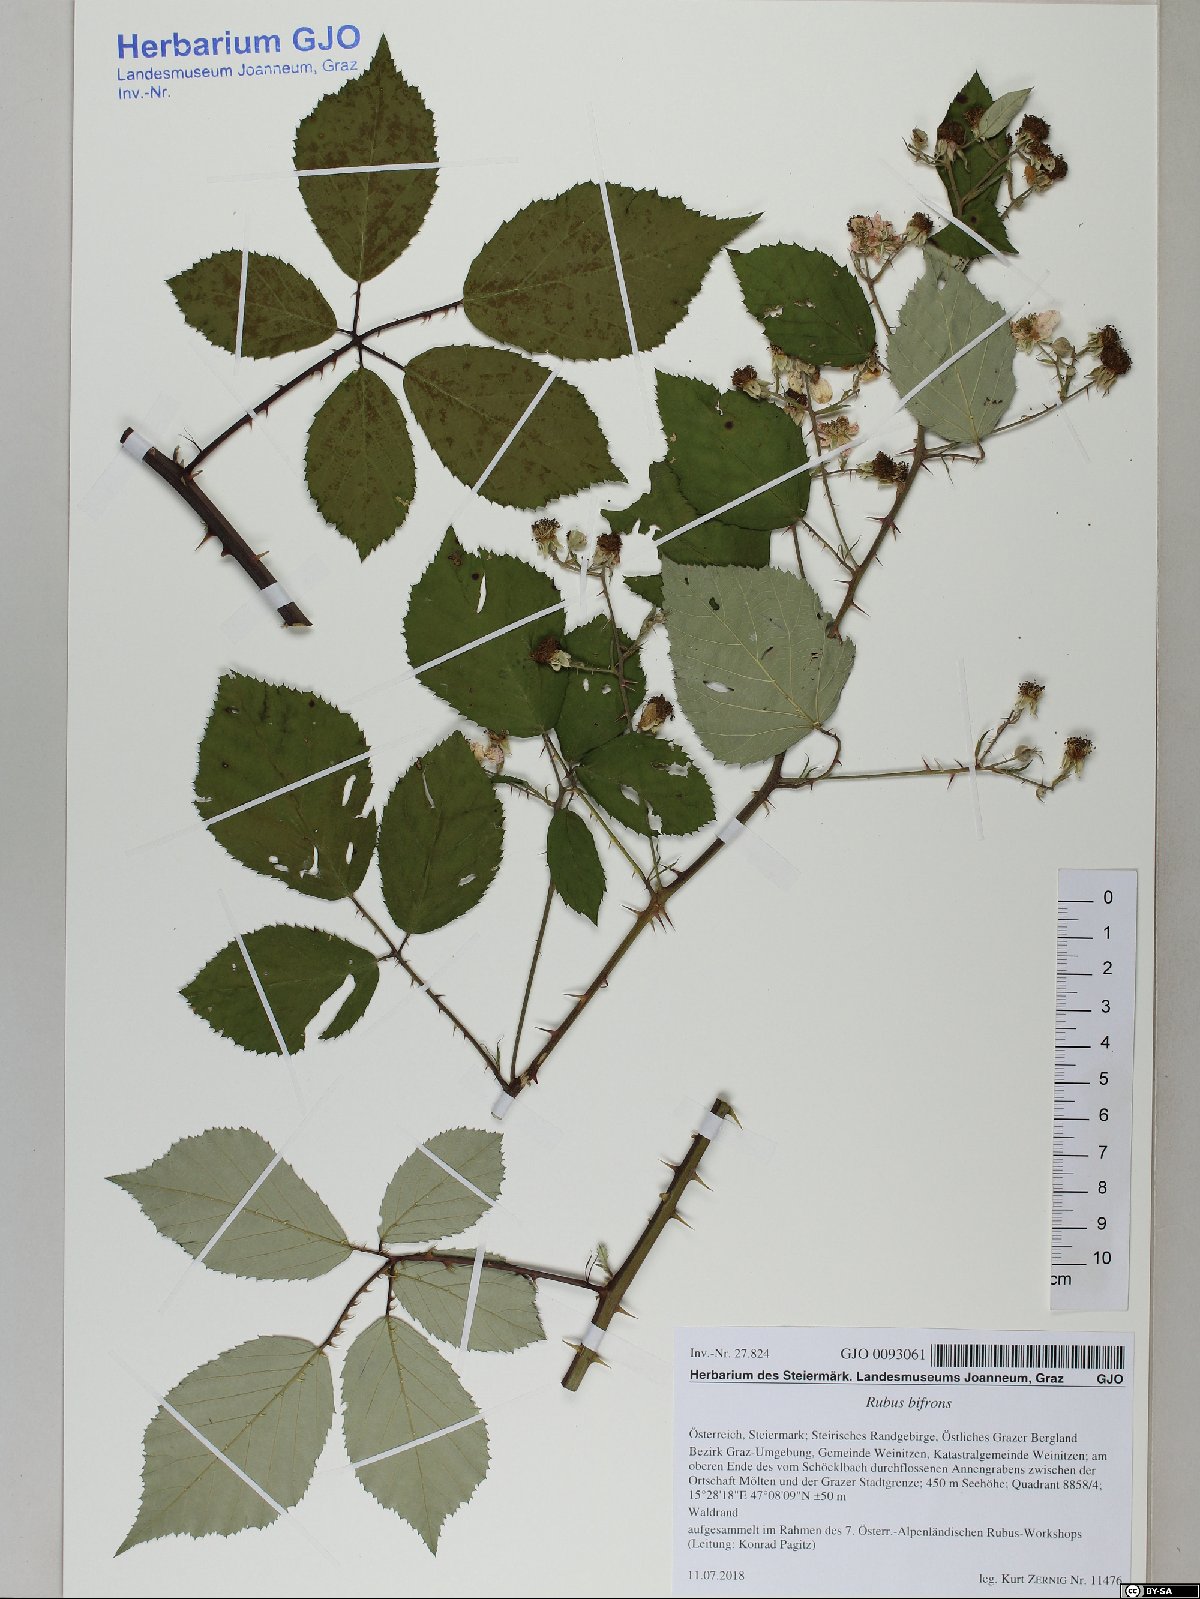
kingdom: Plantae
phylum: Tracheophyta
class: Magnoliopsida
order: Rosales
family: Rosaceae
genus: Rubus
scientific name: Rubus bifrons
